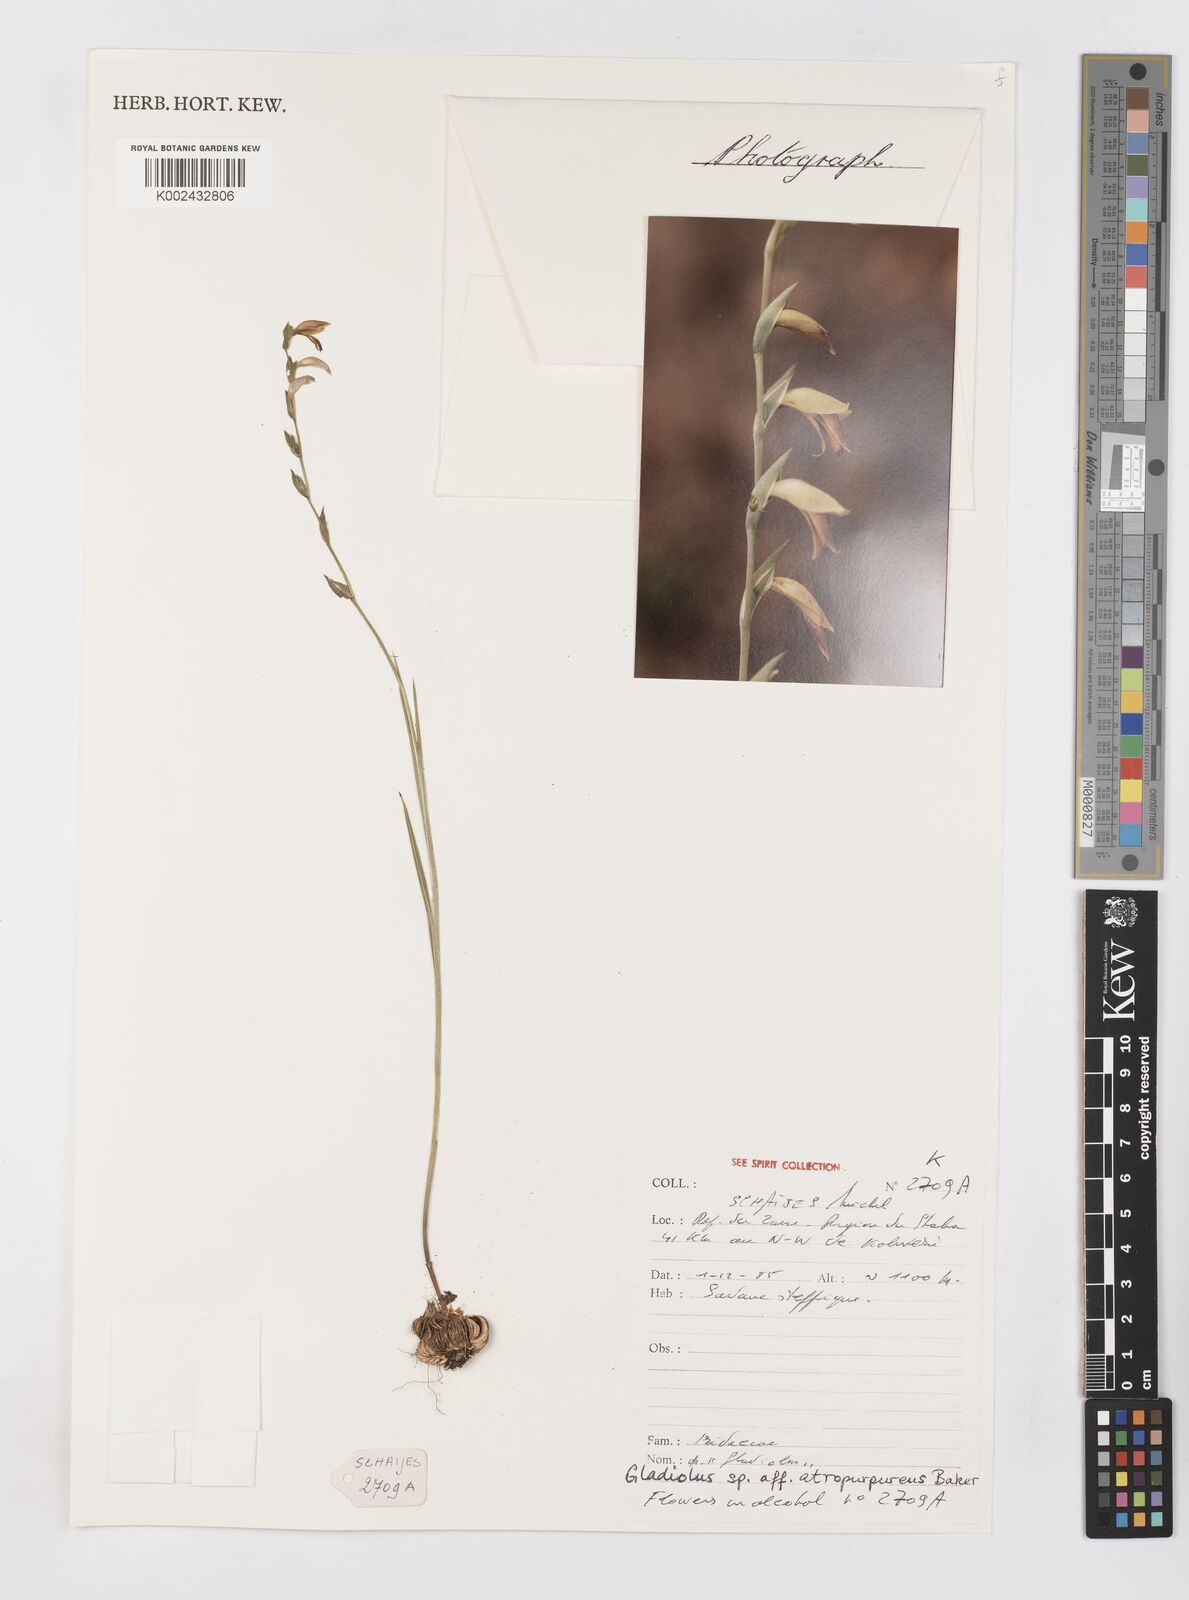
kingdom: Plantae
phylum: Tracheophyta
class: Liliopsida
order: Asparagales
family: Iridaceae
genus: Gladiolus
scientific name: Gladiolus atropurpureus
